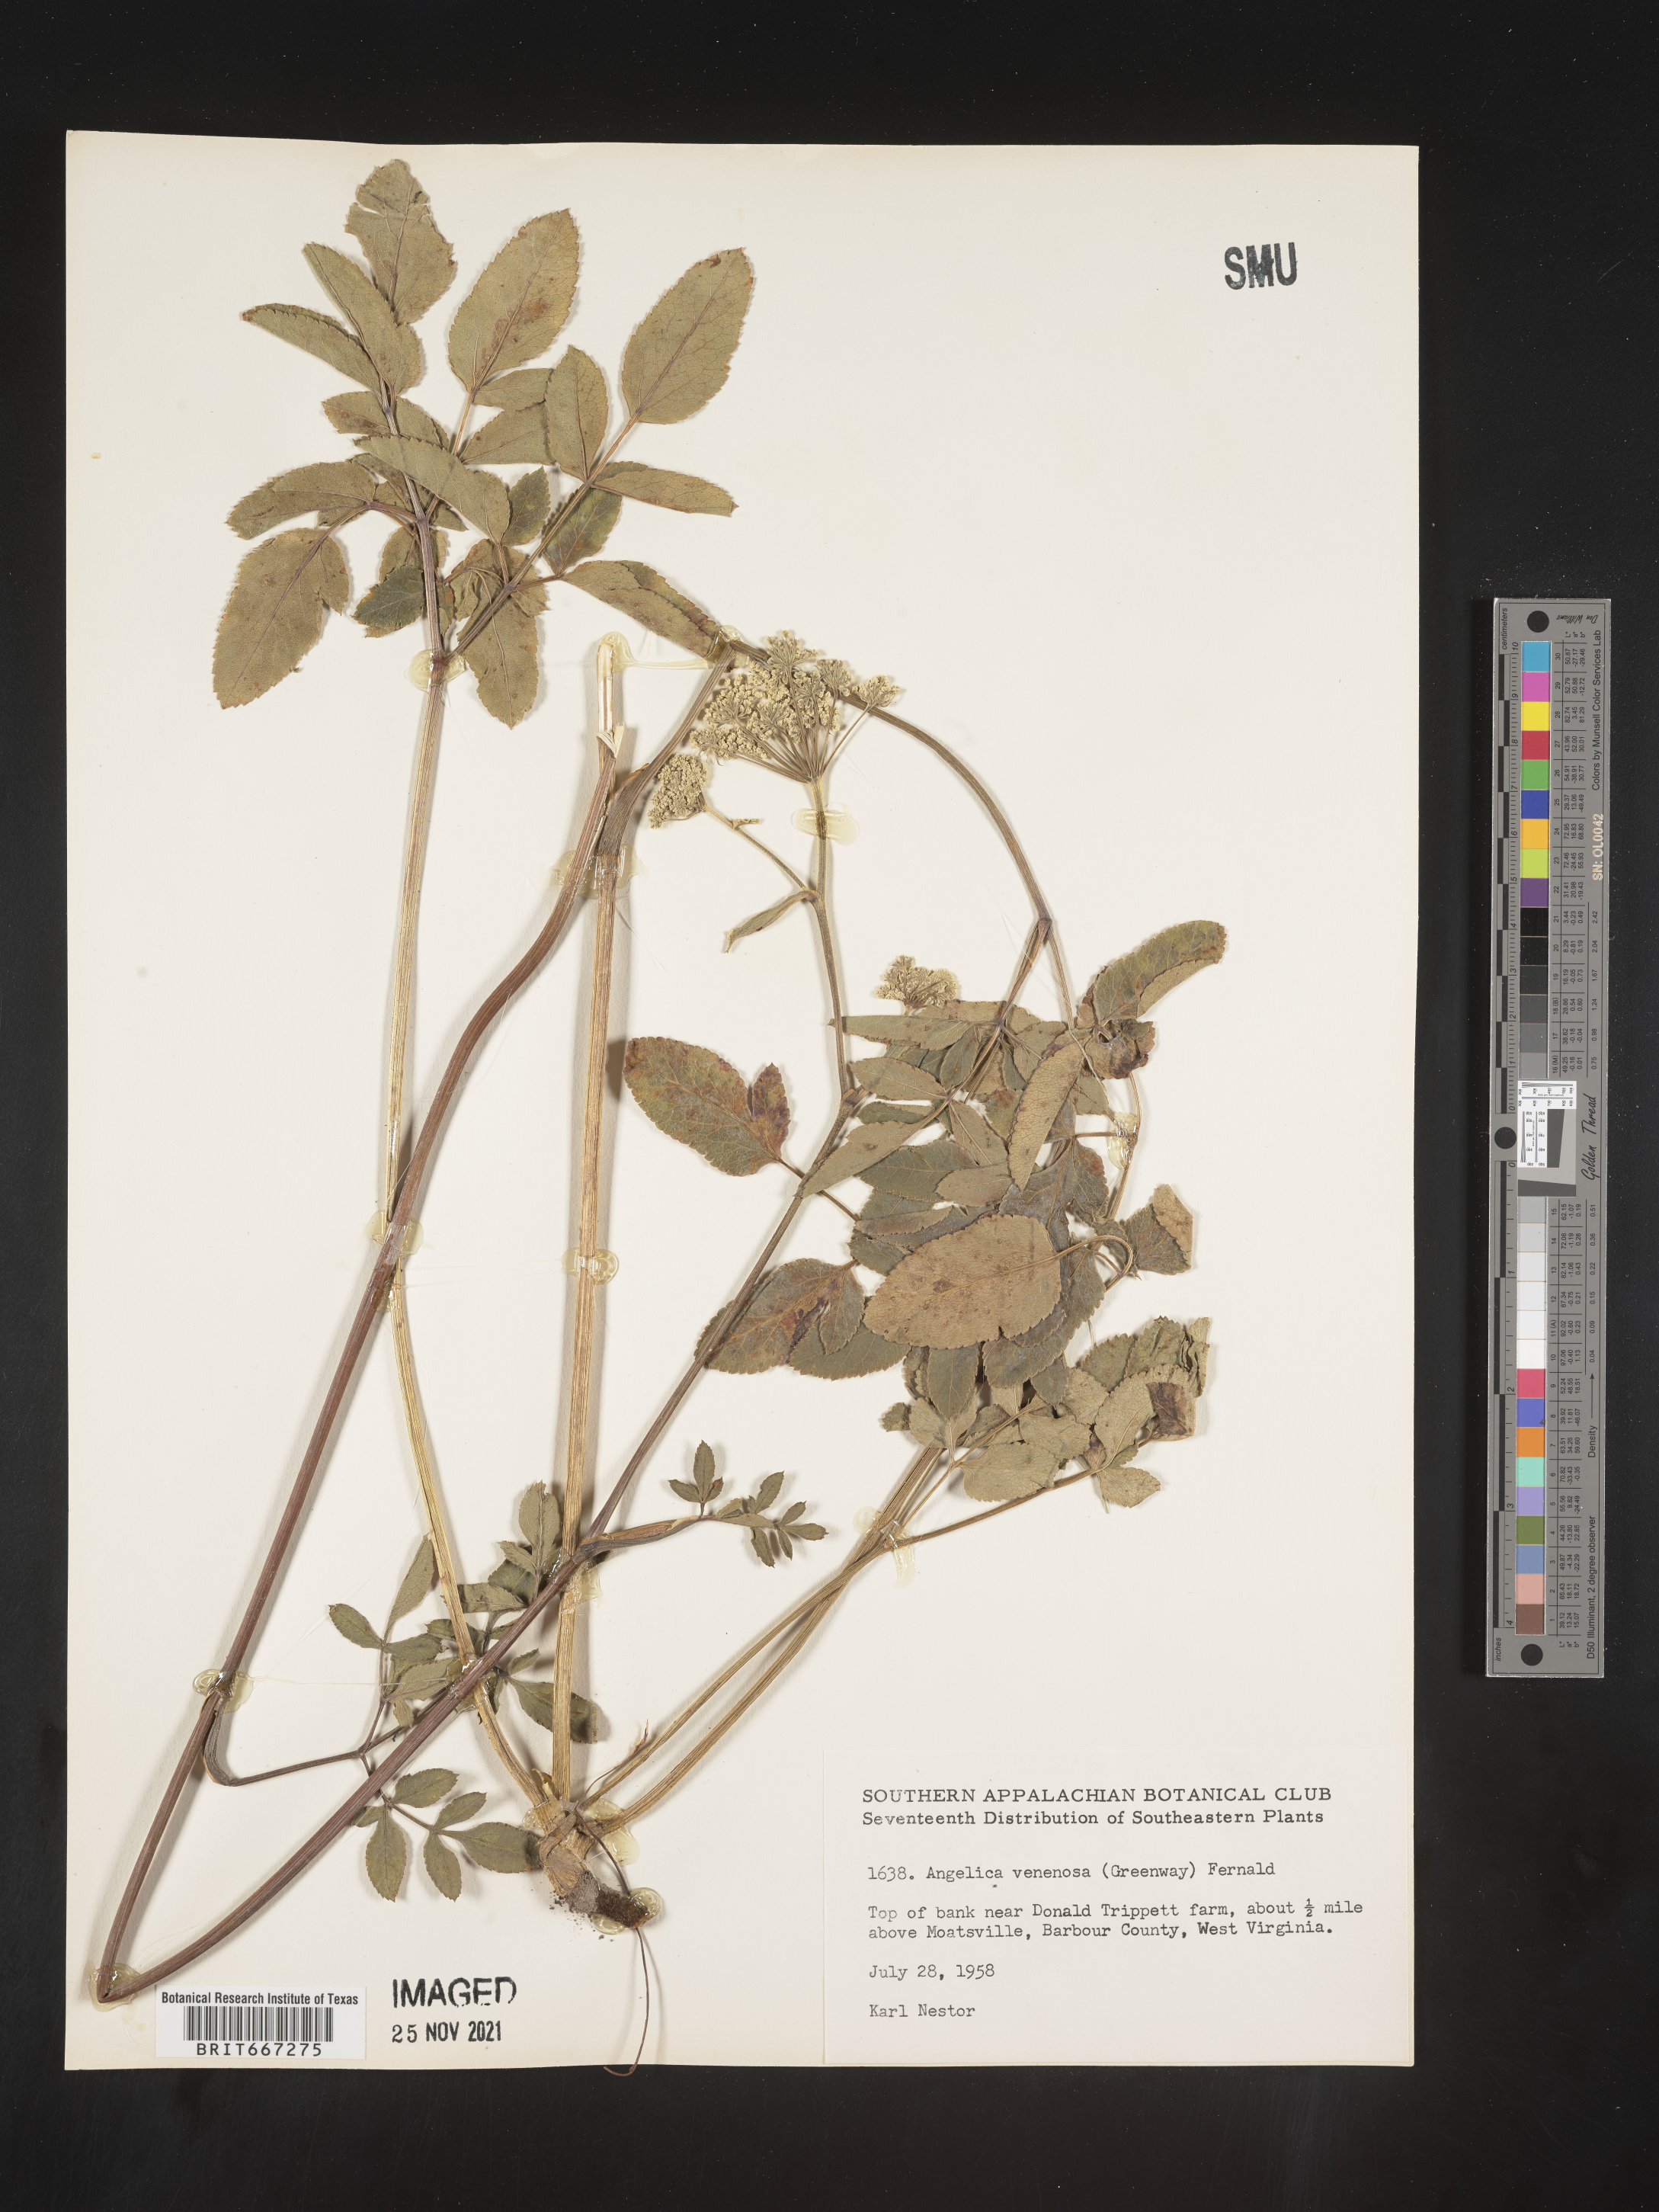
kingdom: Plantae
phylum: Tracheophyta
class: Magnoliopsida
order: Apiales
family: Apiaceae
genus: Angelica
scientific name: Angelica venenosa
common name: Hairy angelica
